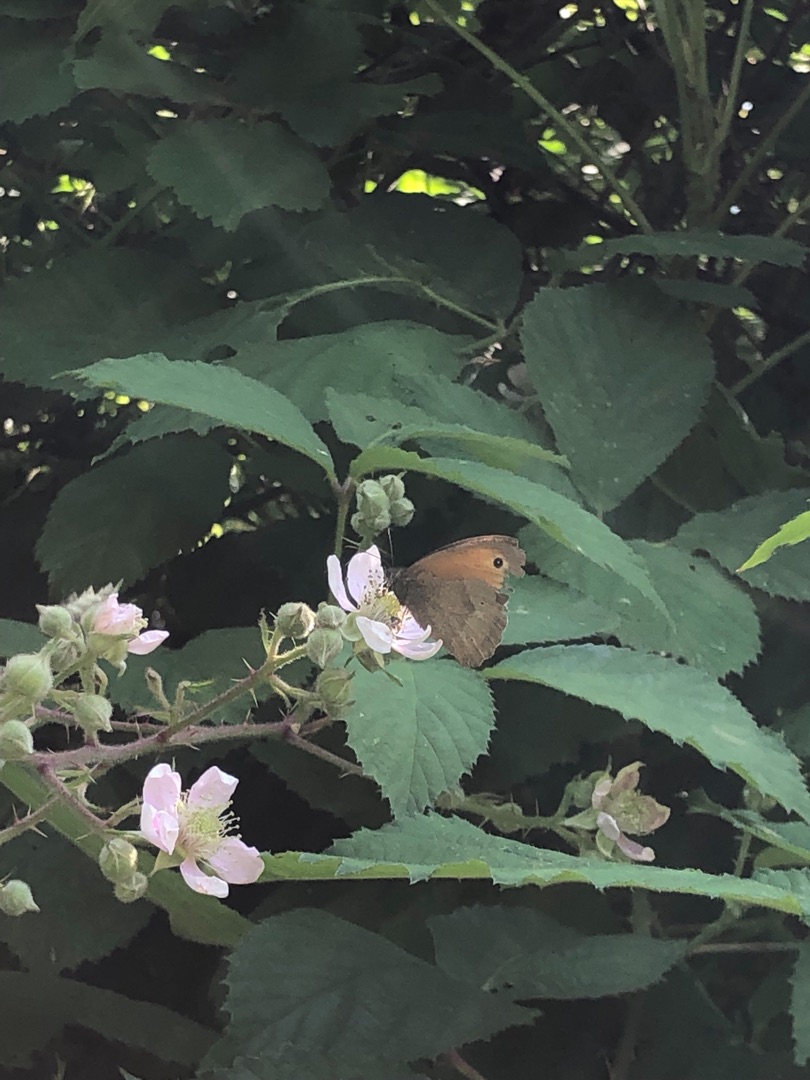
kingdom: Animalia
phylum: Arthropoda
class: Insecta
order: Lepidoptera
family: Nymphalidae
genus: Maniola
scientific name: Maniola jurtina
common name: Græsrandøje
